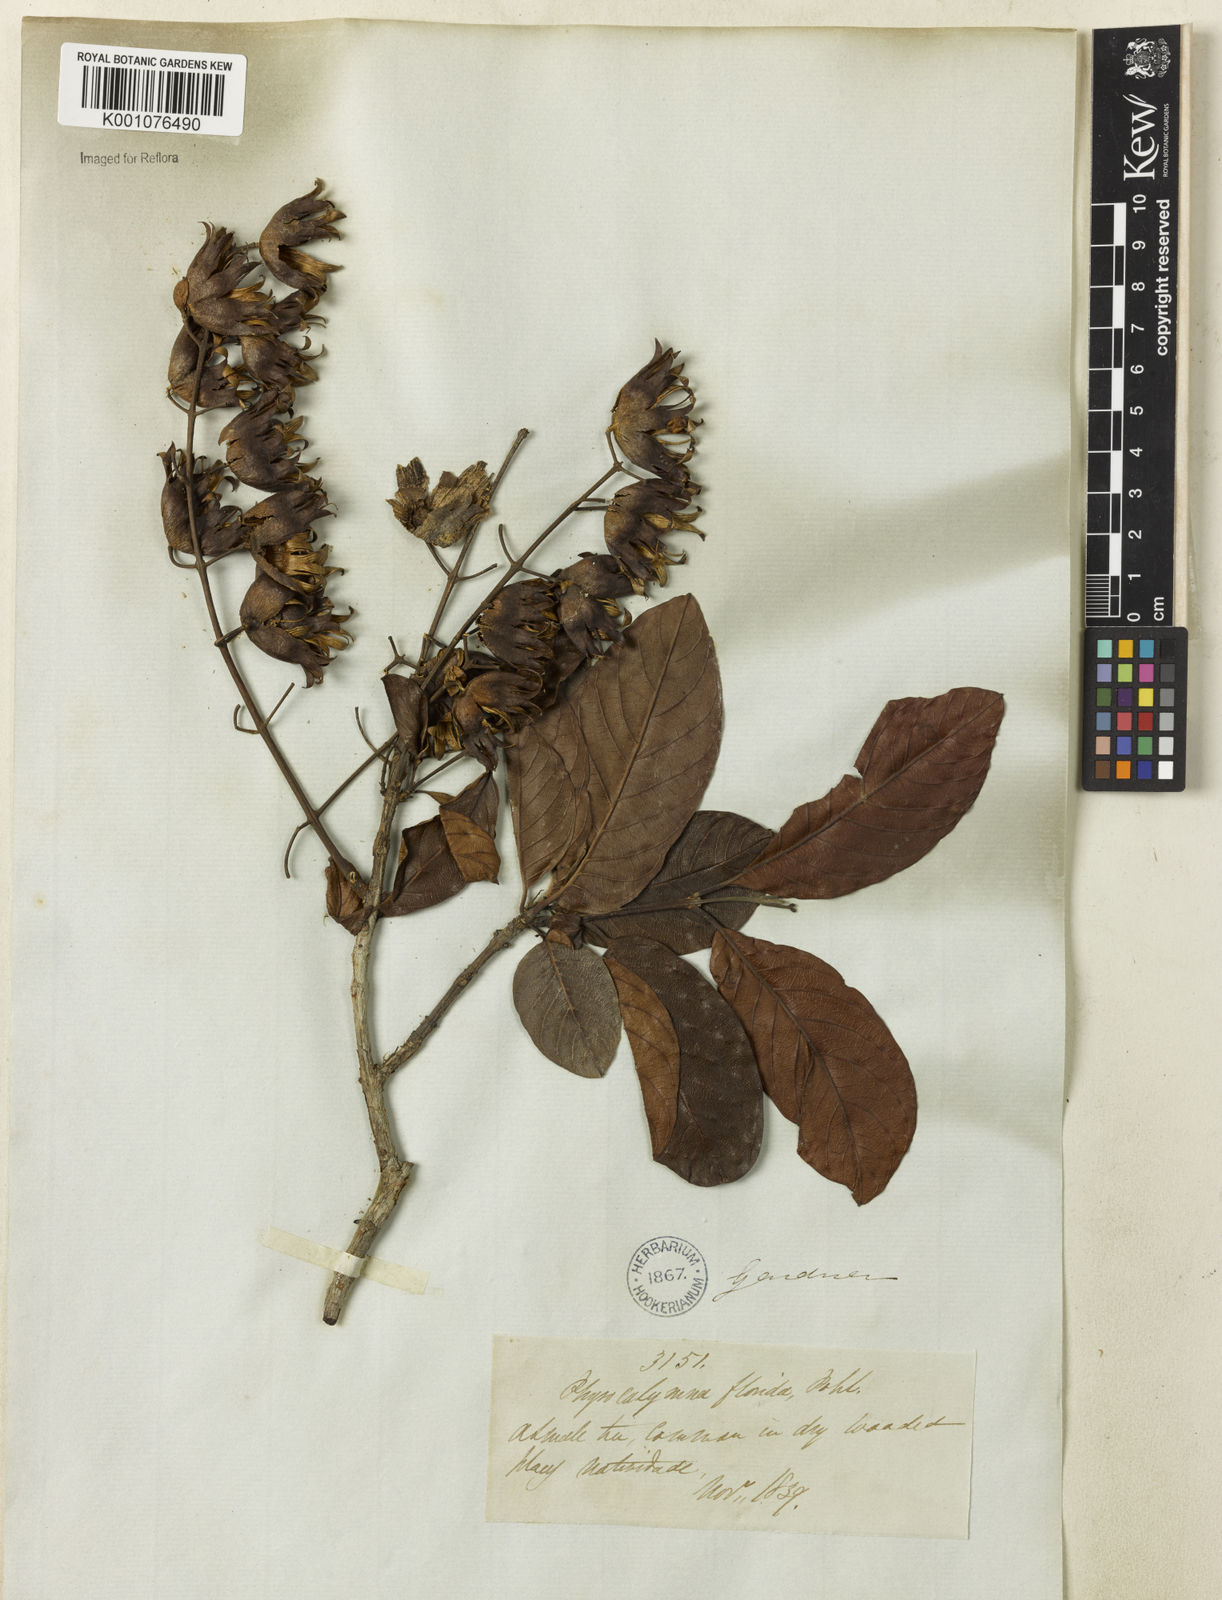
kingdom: Plantae
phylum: Tracheophyta
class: Magnoliopsida
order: Myrtales
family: Lythraceae
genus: Physocalymma
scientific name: Physocalymma scaberrimum
